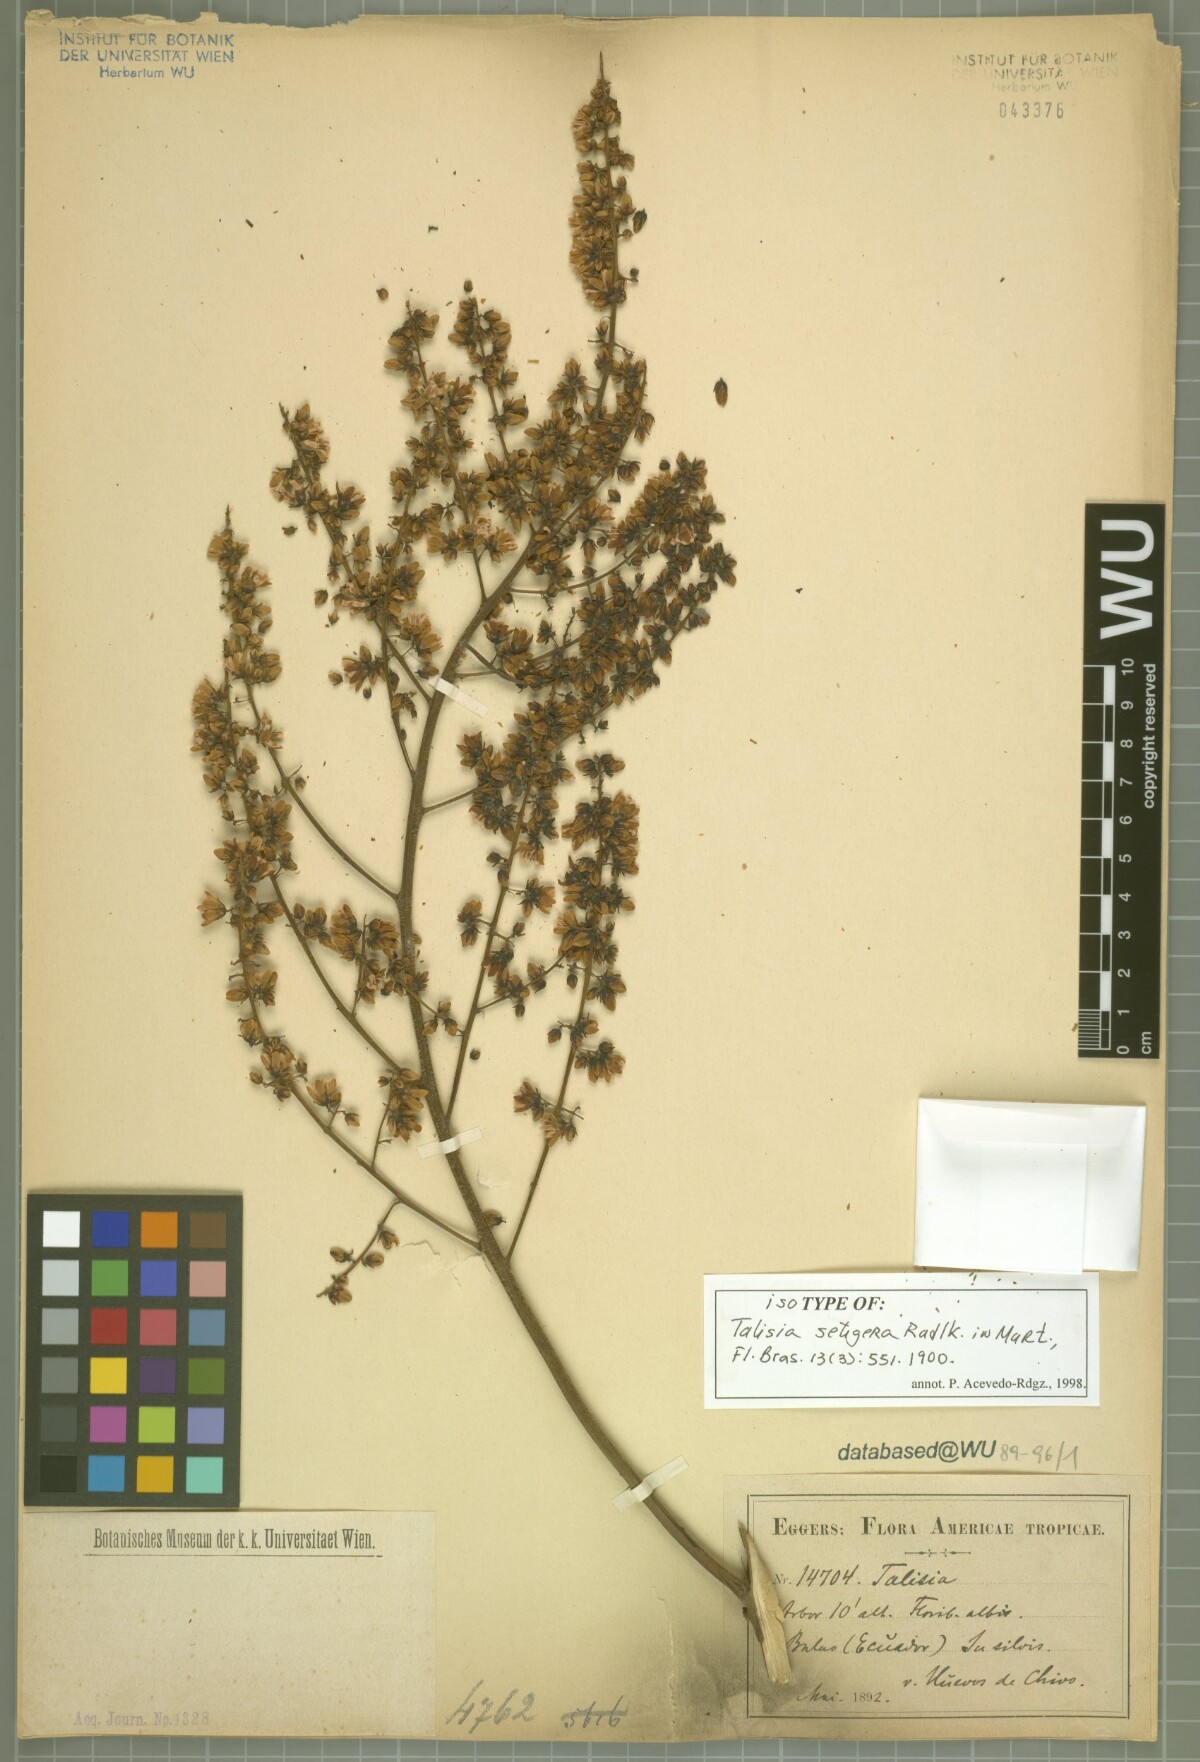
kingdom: Plantae
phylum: Tracheophyta
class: Magnoliopsida
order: Sapindales
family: Sapindaceae
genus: Talisia
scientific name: Talisia setigera
